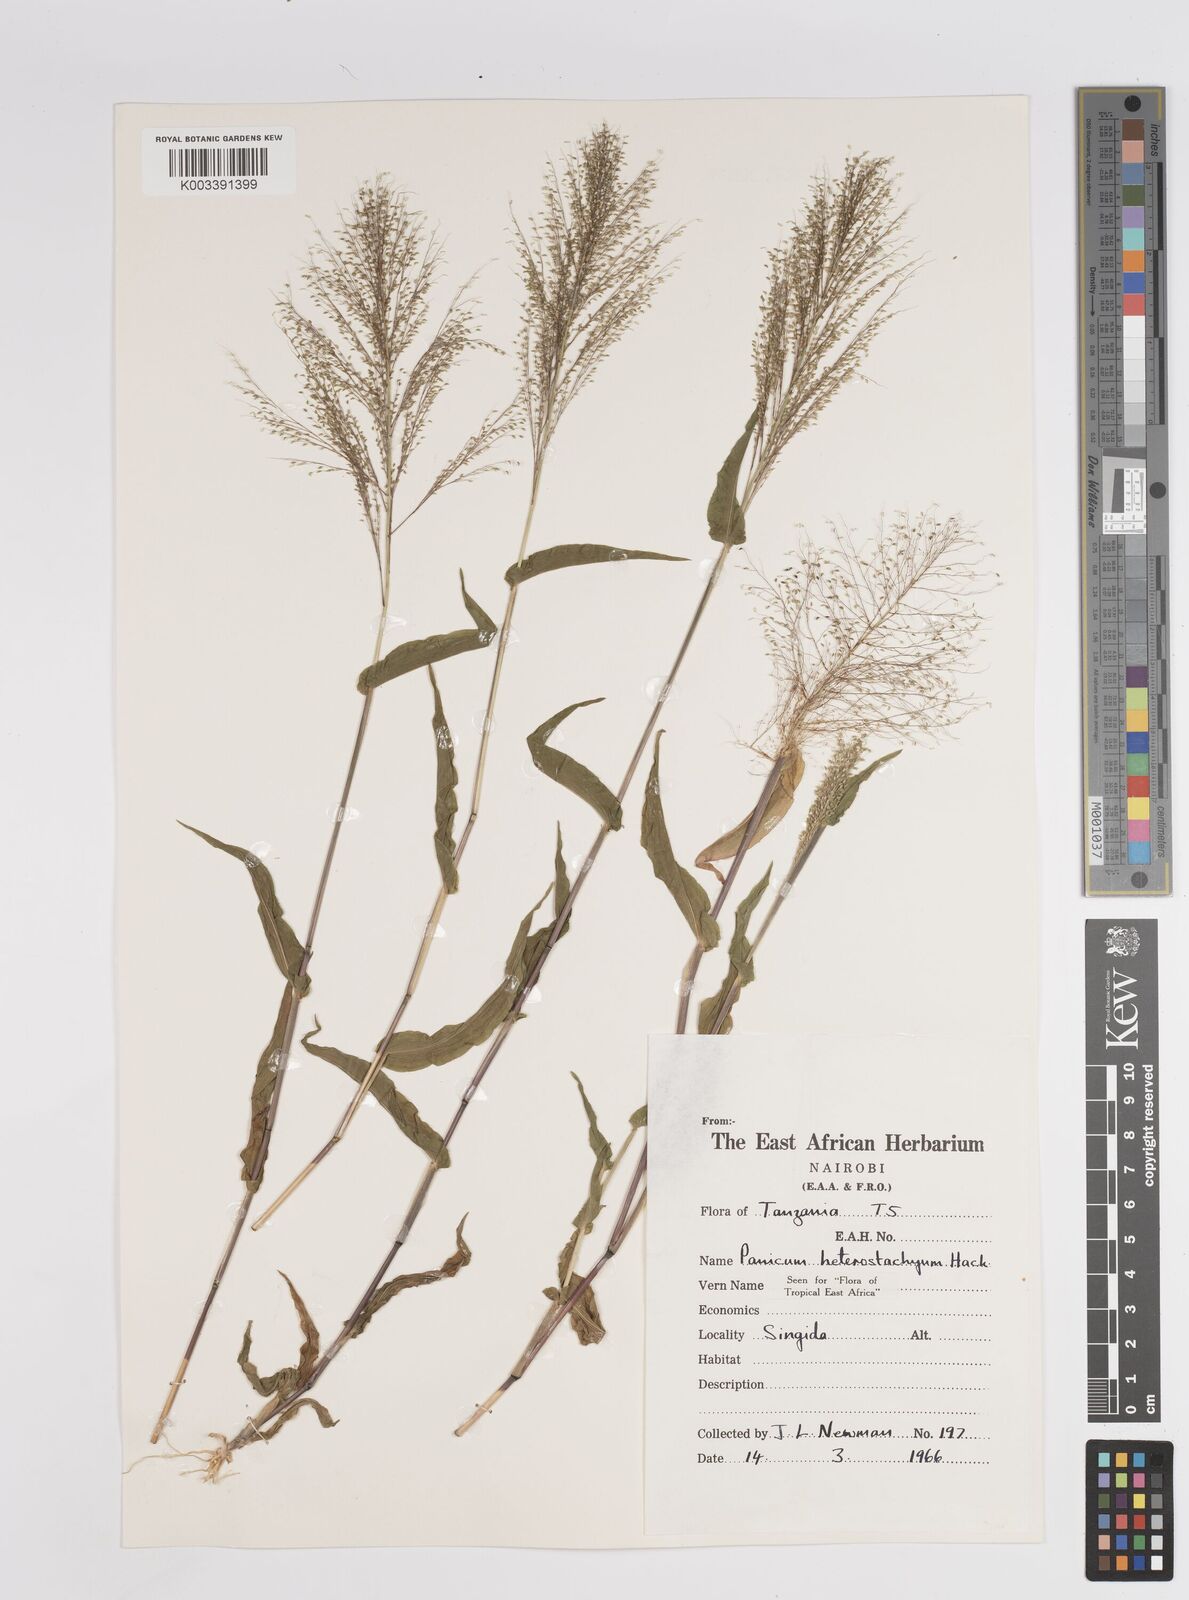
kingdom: Plantae
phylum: Tracheophyta
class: Liliopsida
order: Poales
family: Poaceae
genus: Panicum
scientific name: Panicum hirtum
